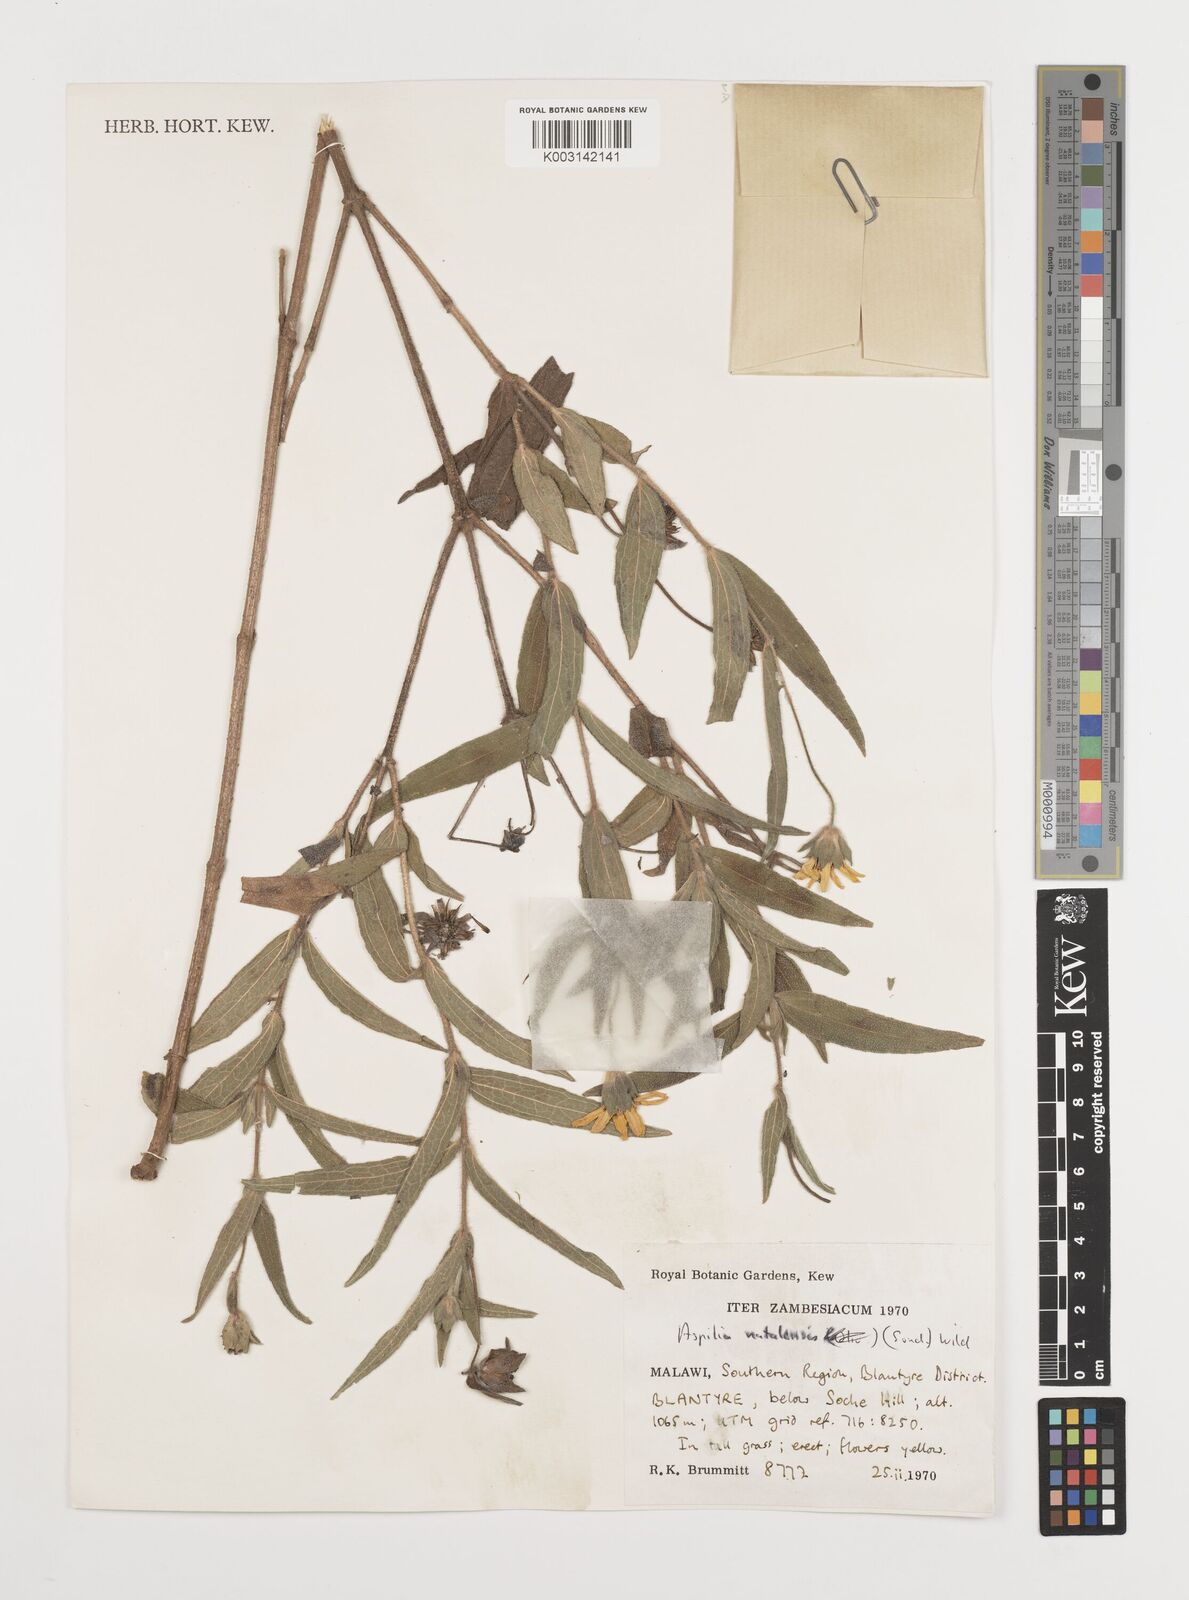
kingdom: Plantae
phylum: Tracheophyta
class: Magnoliopsida
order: Asterales
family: Asteraceae
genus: Aspilia
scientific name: Aspilia natalensis
